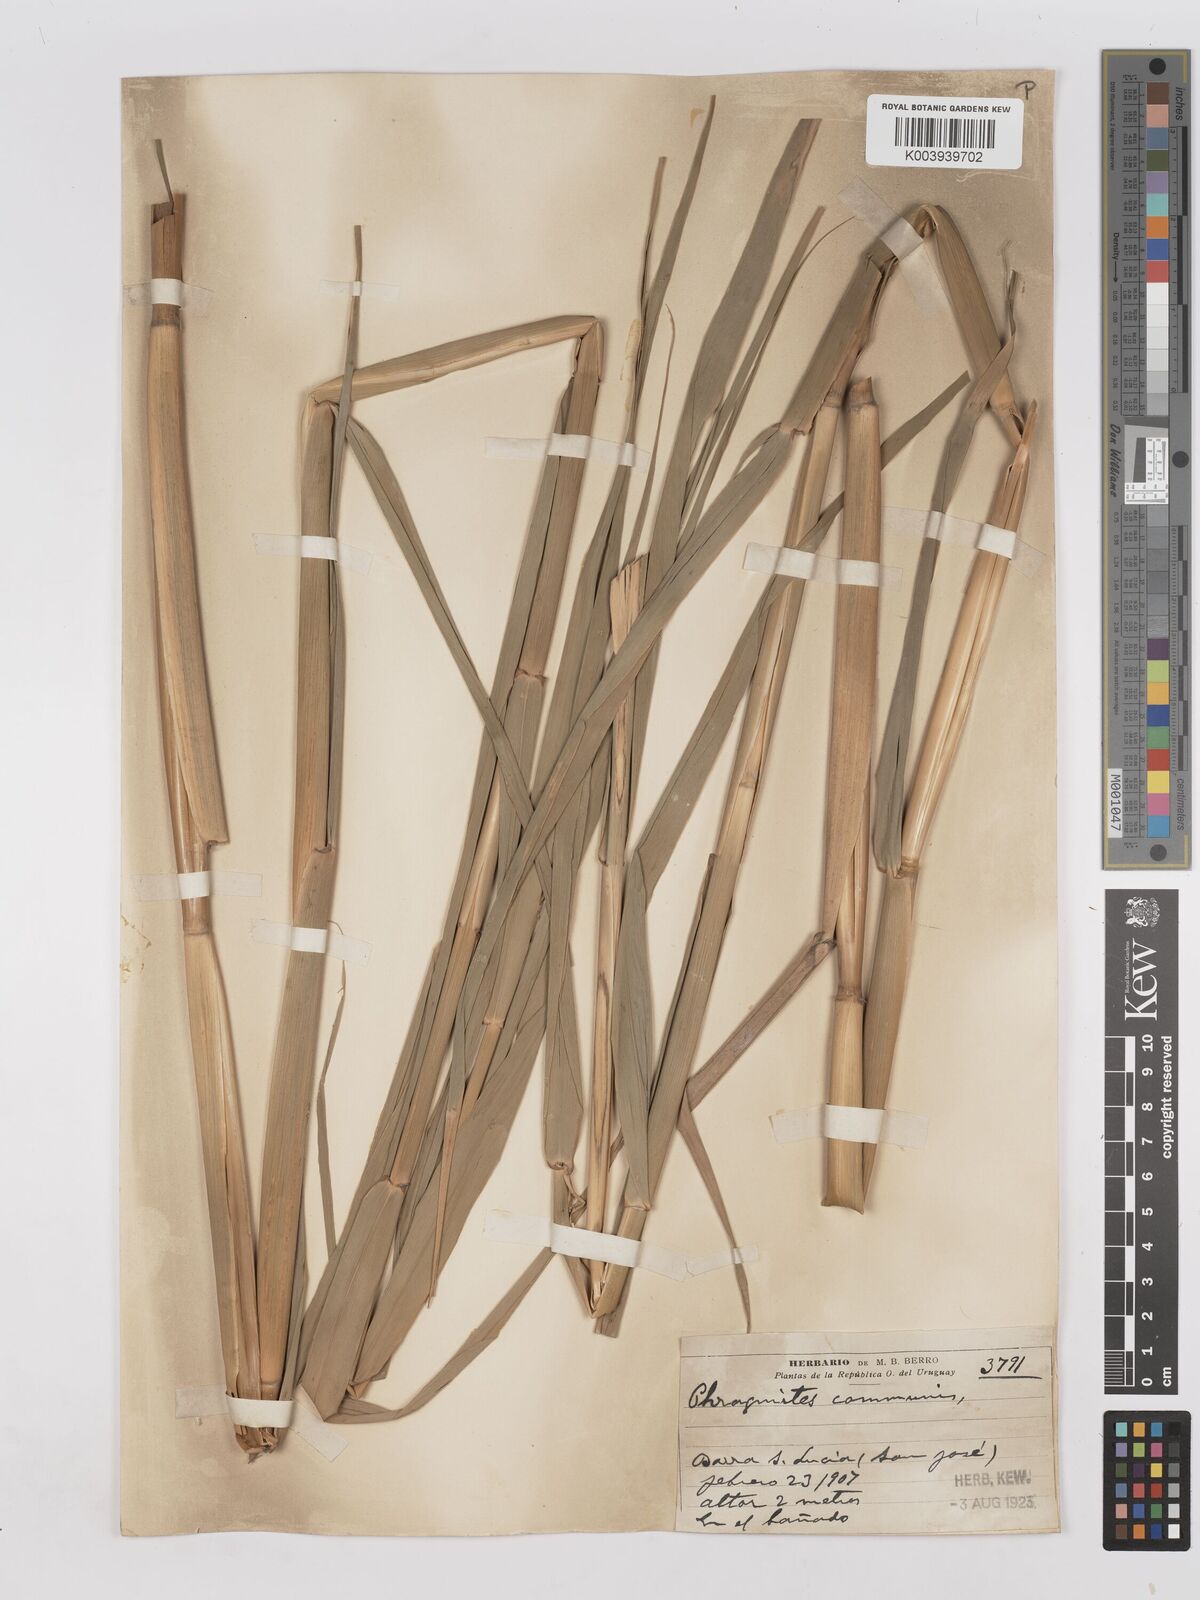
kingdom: Plantae
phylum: Tracheophyta
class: Liliopsida
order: Poales
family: Poaceae
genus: Phragmites
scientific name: Phragmites australis
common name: Common reed
